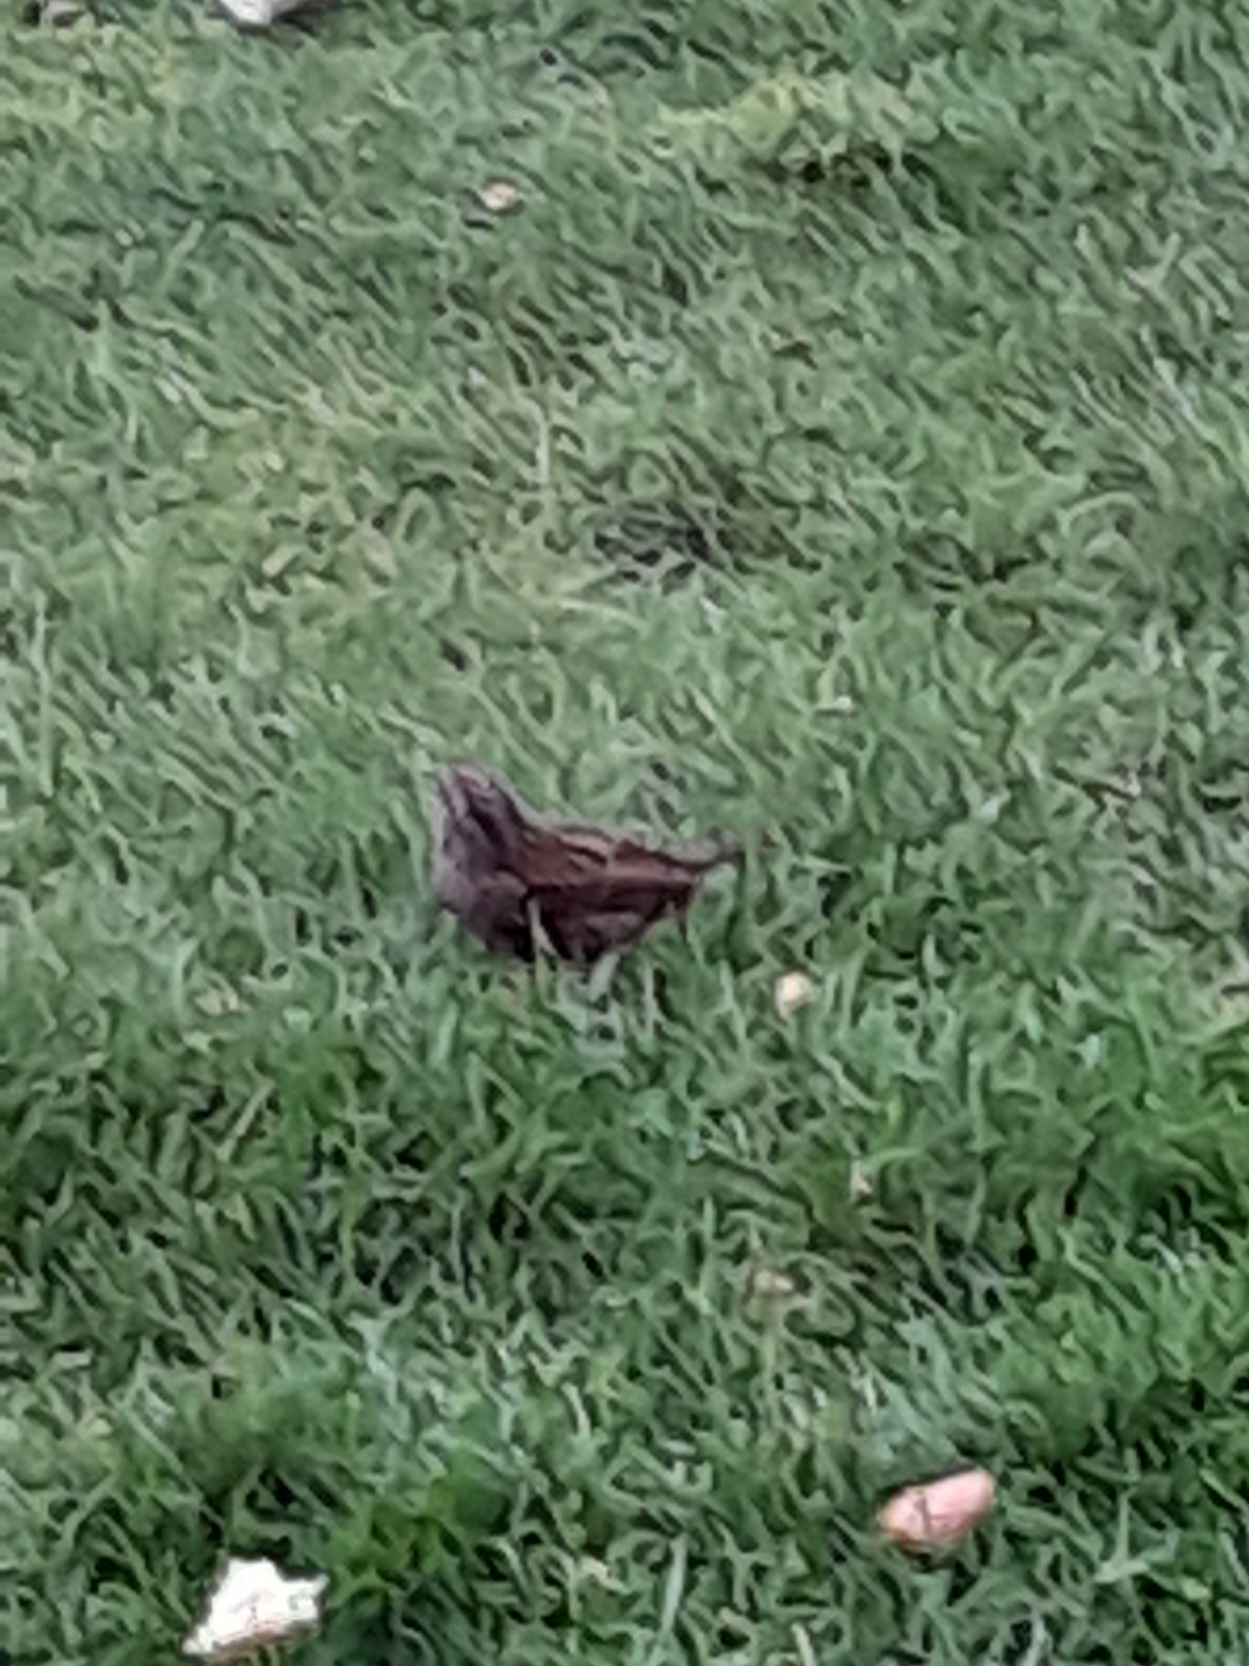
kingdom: Animalia
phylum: Chordata
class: Aves
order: Passeriformes
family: Prunellidae
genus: Prunella
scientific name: Prunella modularis
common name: Jernspurv
